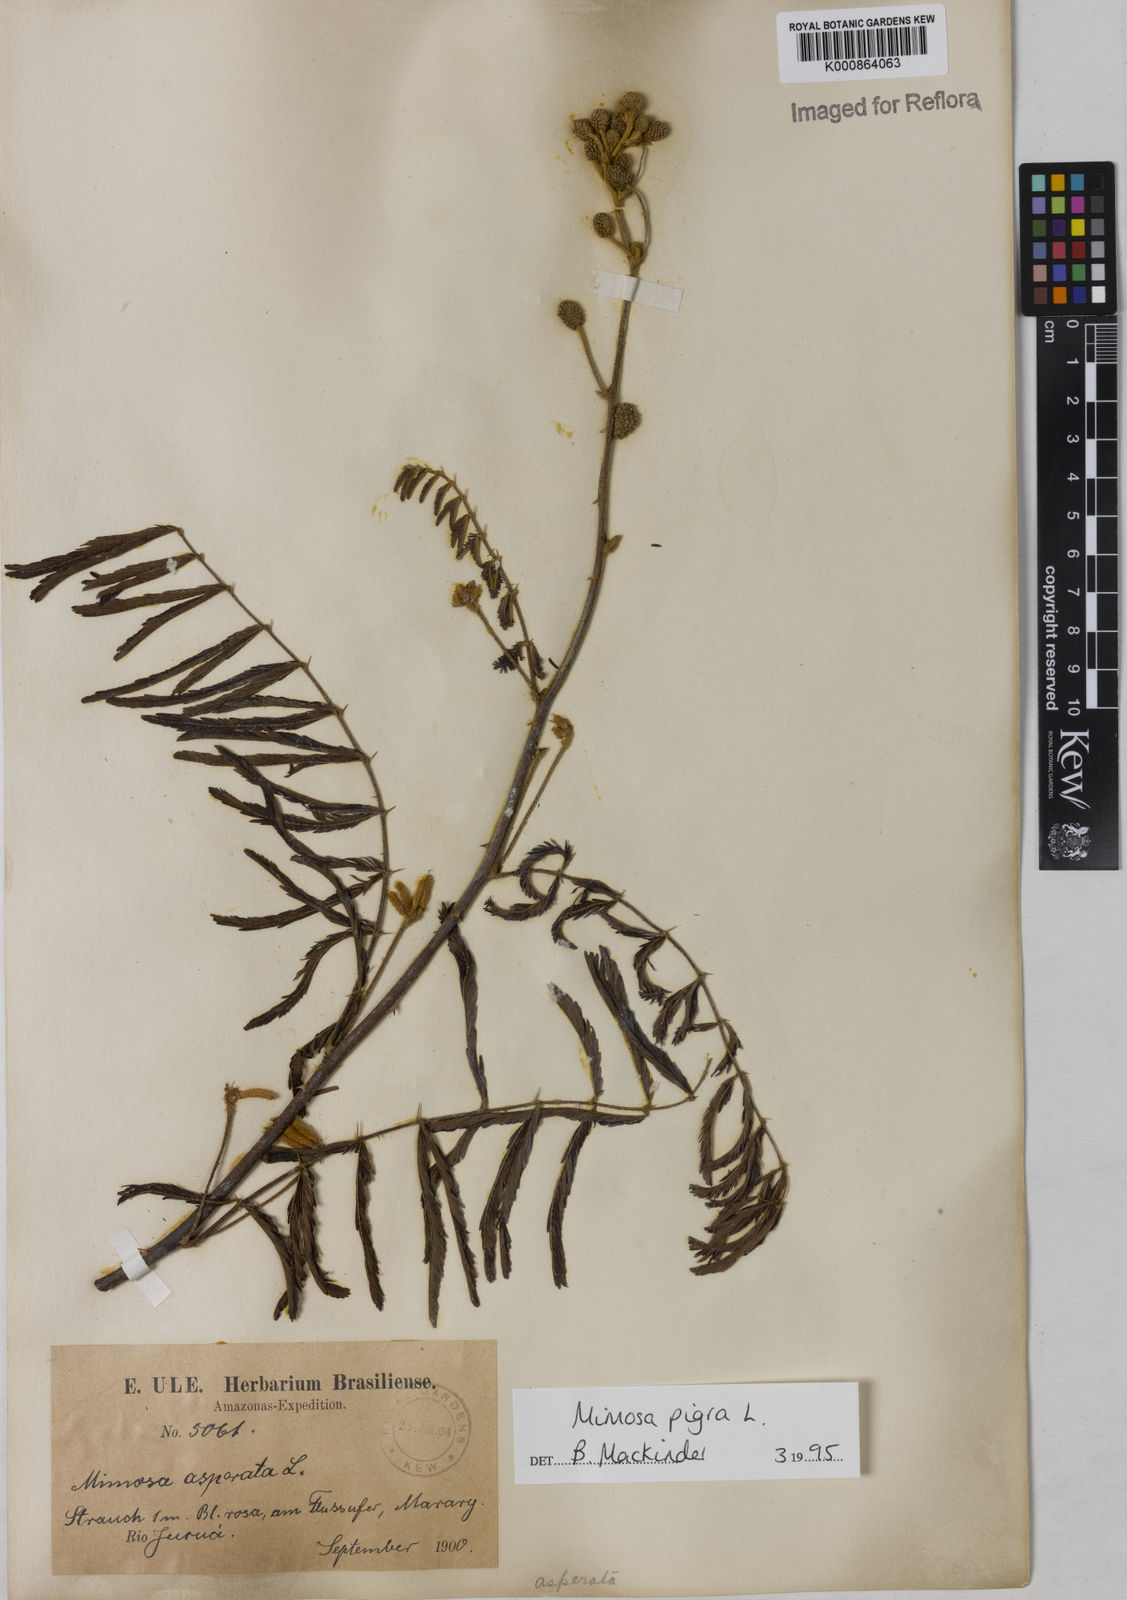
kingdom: Plantae
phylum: Tracheophyta
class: Magnoliopsida
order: Fabales
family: Fabaceae
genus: Mimosa
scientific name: Mimosa pigra
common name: Black mimosa
